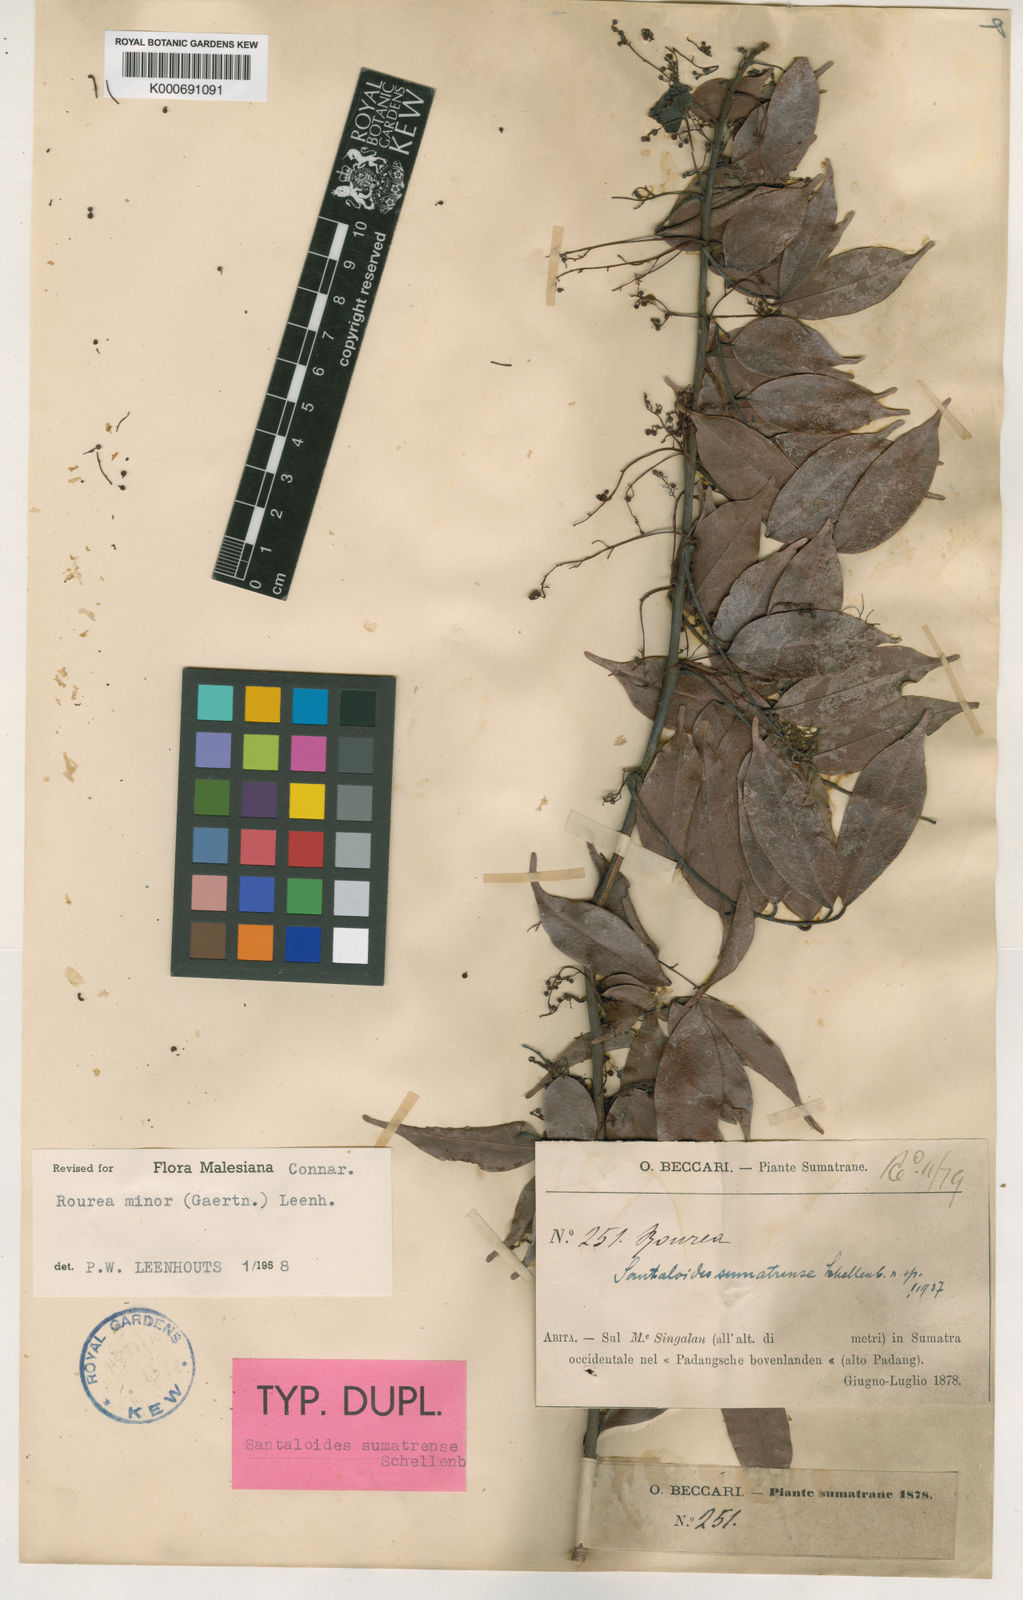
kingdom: Plantae
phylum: Tracheophyta
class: Magnoliopsida
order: Oxalidales
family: Connaraceae
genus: Rourea
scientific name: Rourea
